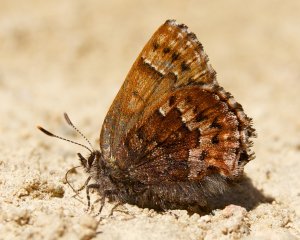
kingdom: Animalia
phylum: Arthropoda
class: Insecta
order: Lepidoptera
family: Lycaenidae
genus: Incisalia
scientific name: Incisalia niphon
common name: Eastern Pine Elfin
